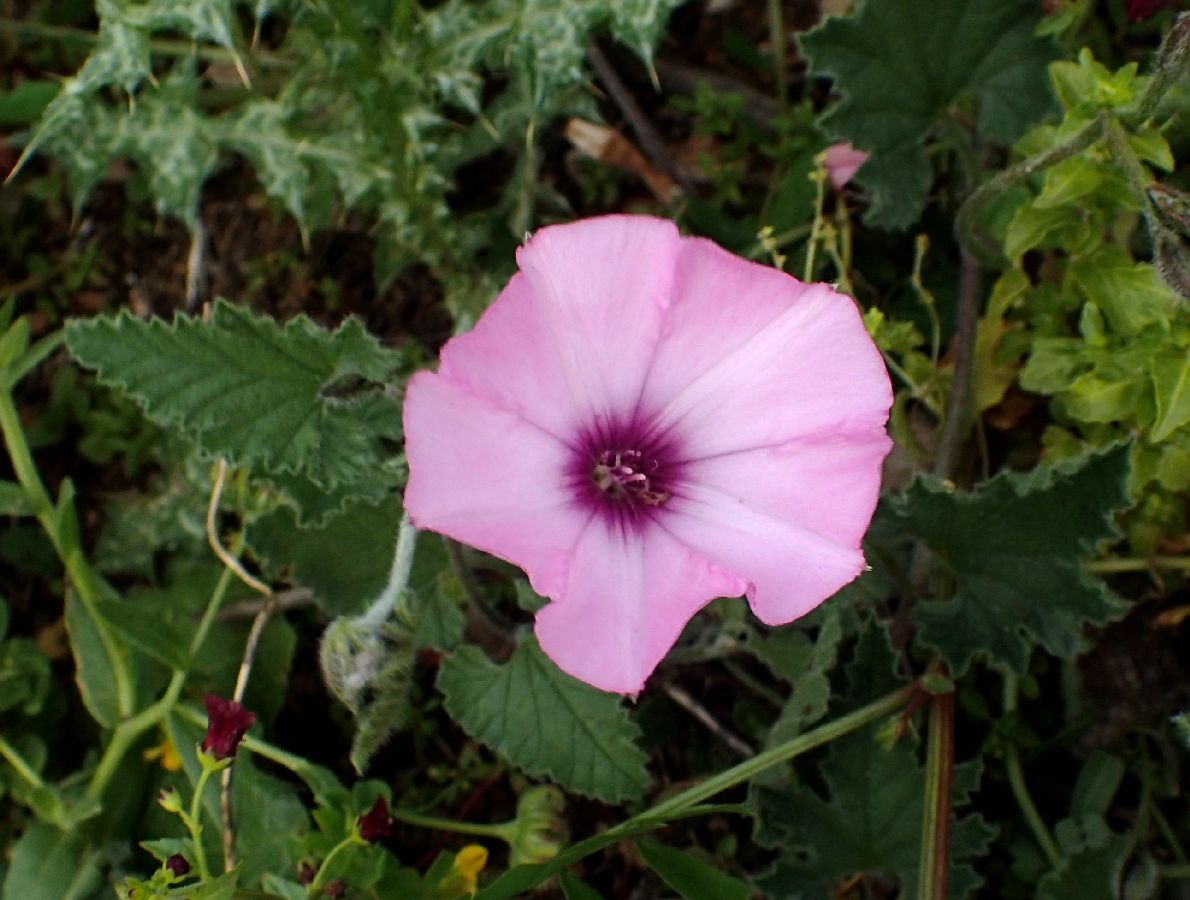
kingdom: Plantae
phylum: Tracheophyta
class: Magnoliopsida
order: Solanales
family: Convolvulaceae
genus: Convolvulus
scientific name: Convolvulus althaeoides
